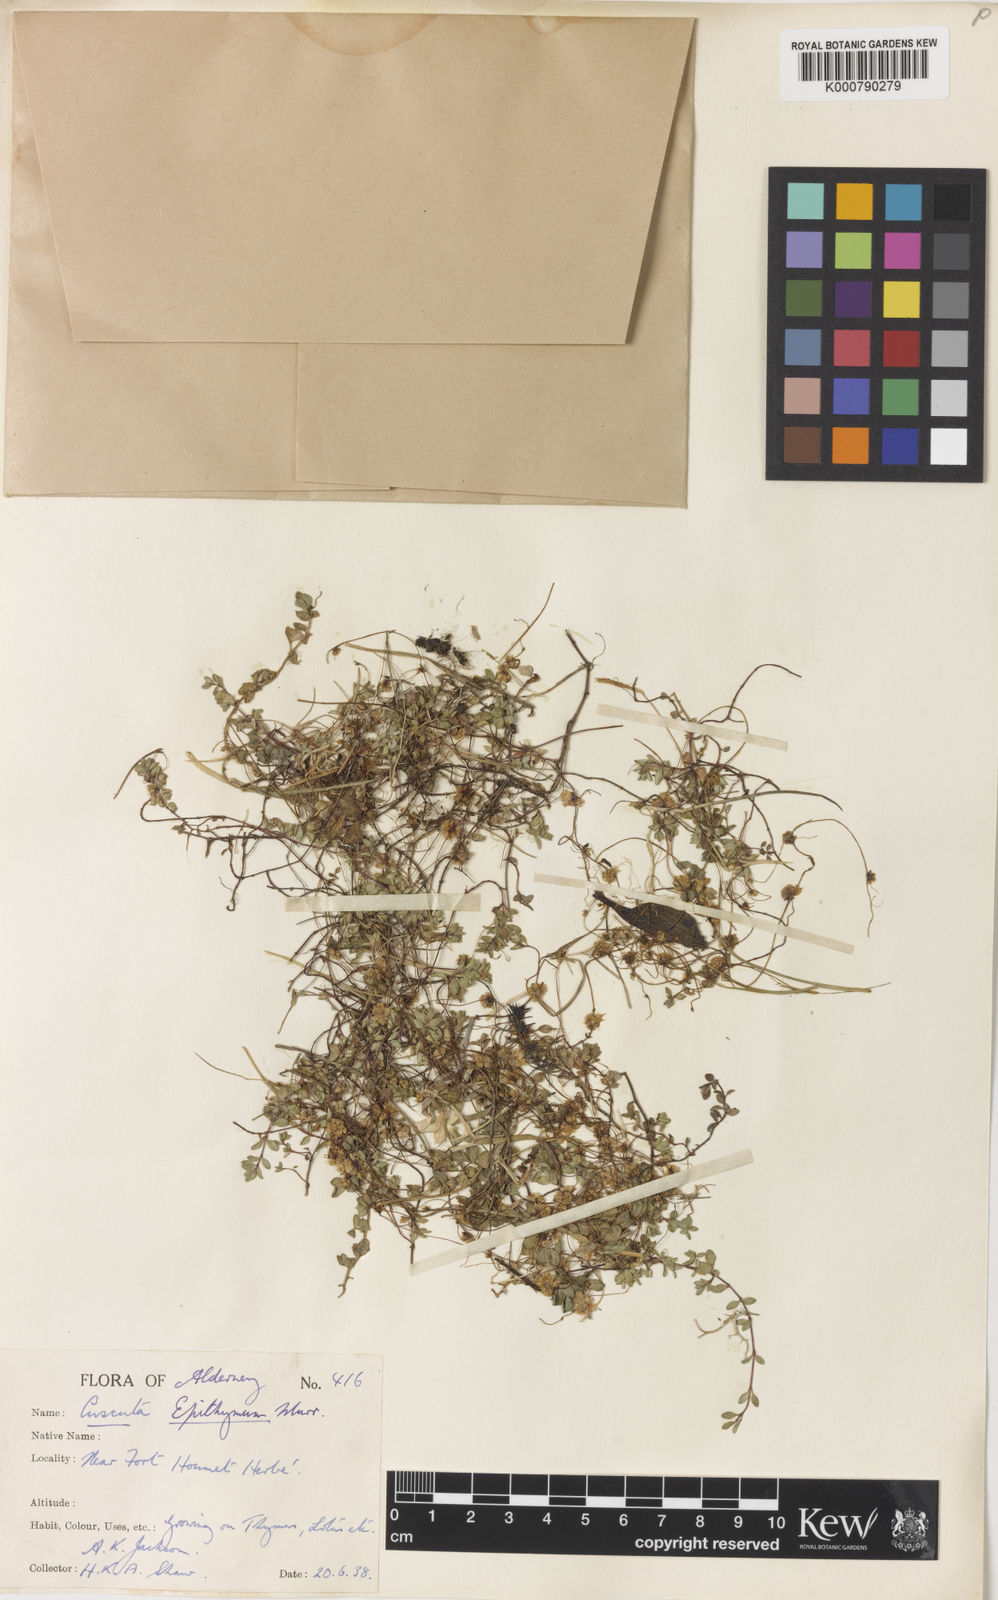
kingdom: Plantae
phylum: Tracheophyta
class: Magnoliopsida
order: Solanales
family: Convolvulaceae
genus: Cuscuta
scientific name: Cuscuta epithymum
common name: Clover dodder
